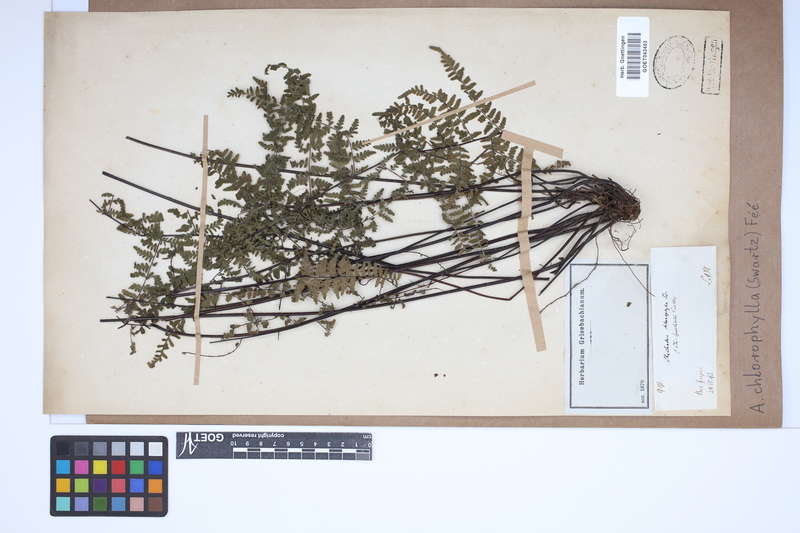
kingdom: Plantae
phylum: Tracheophyta
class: Polypodiopsida
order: Polypodiales
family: Pteridaceae
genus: Adiantopsis
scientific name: Adiantopsis chlorophylla
